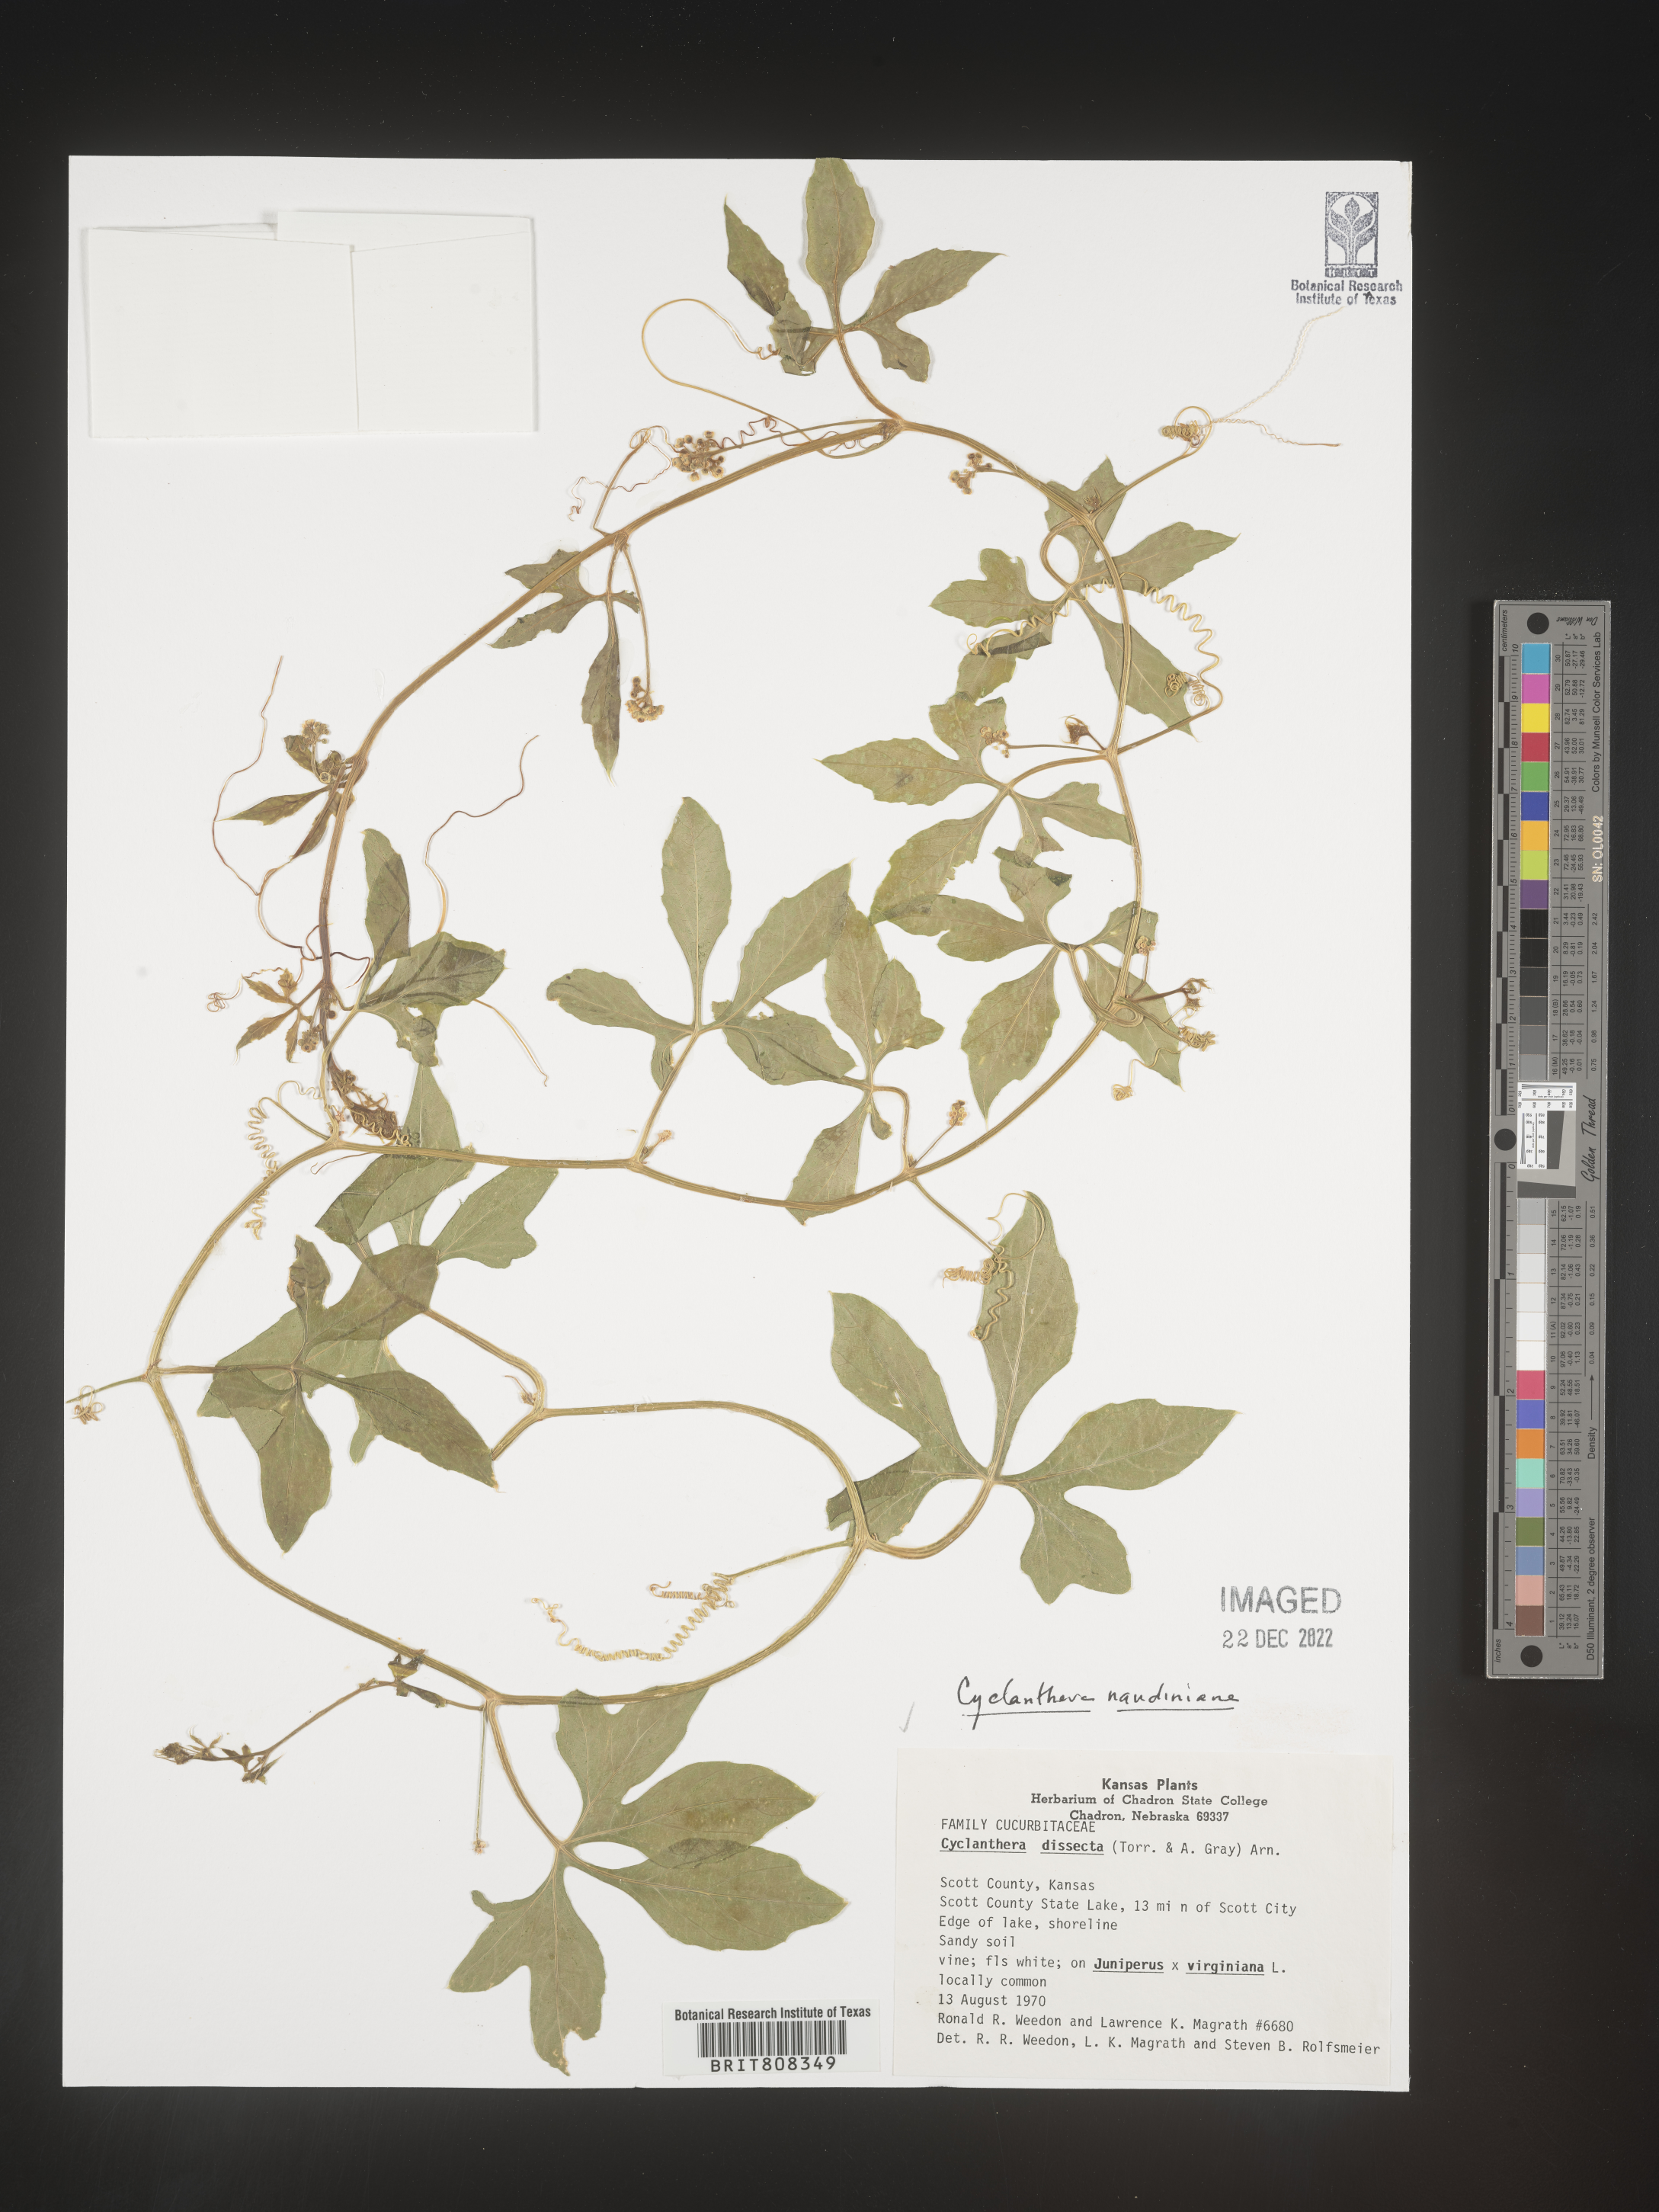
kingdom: Plantae
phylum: Tracheophyta
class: Magnoliopsida
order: Cucurbitales
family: Cucurbitaceae
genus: Cyclanthera
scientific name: Cyclanthera
